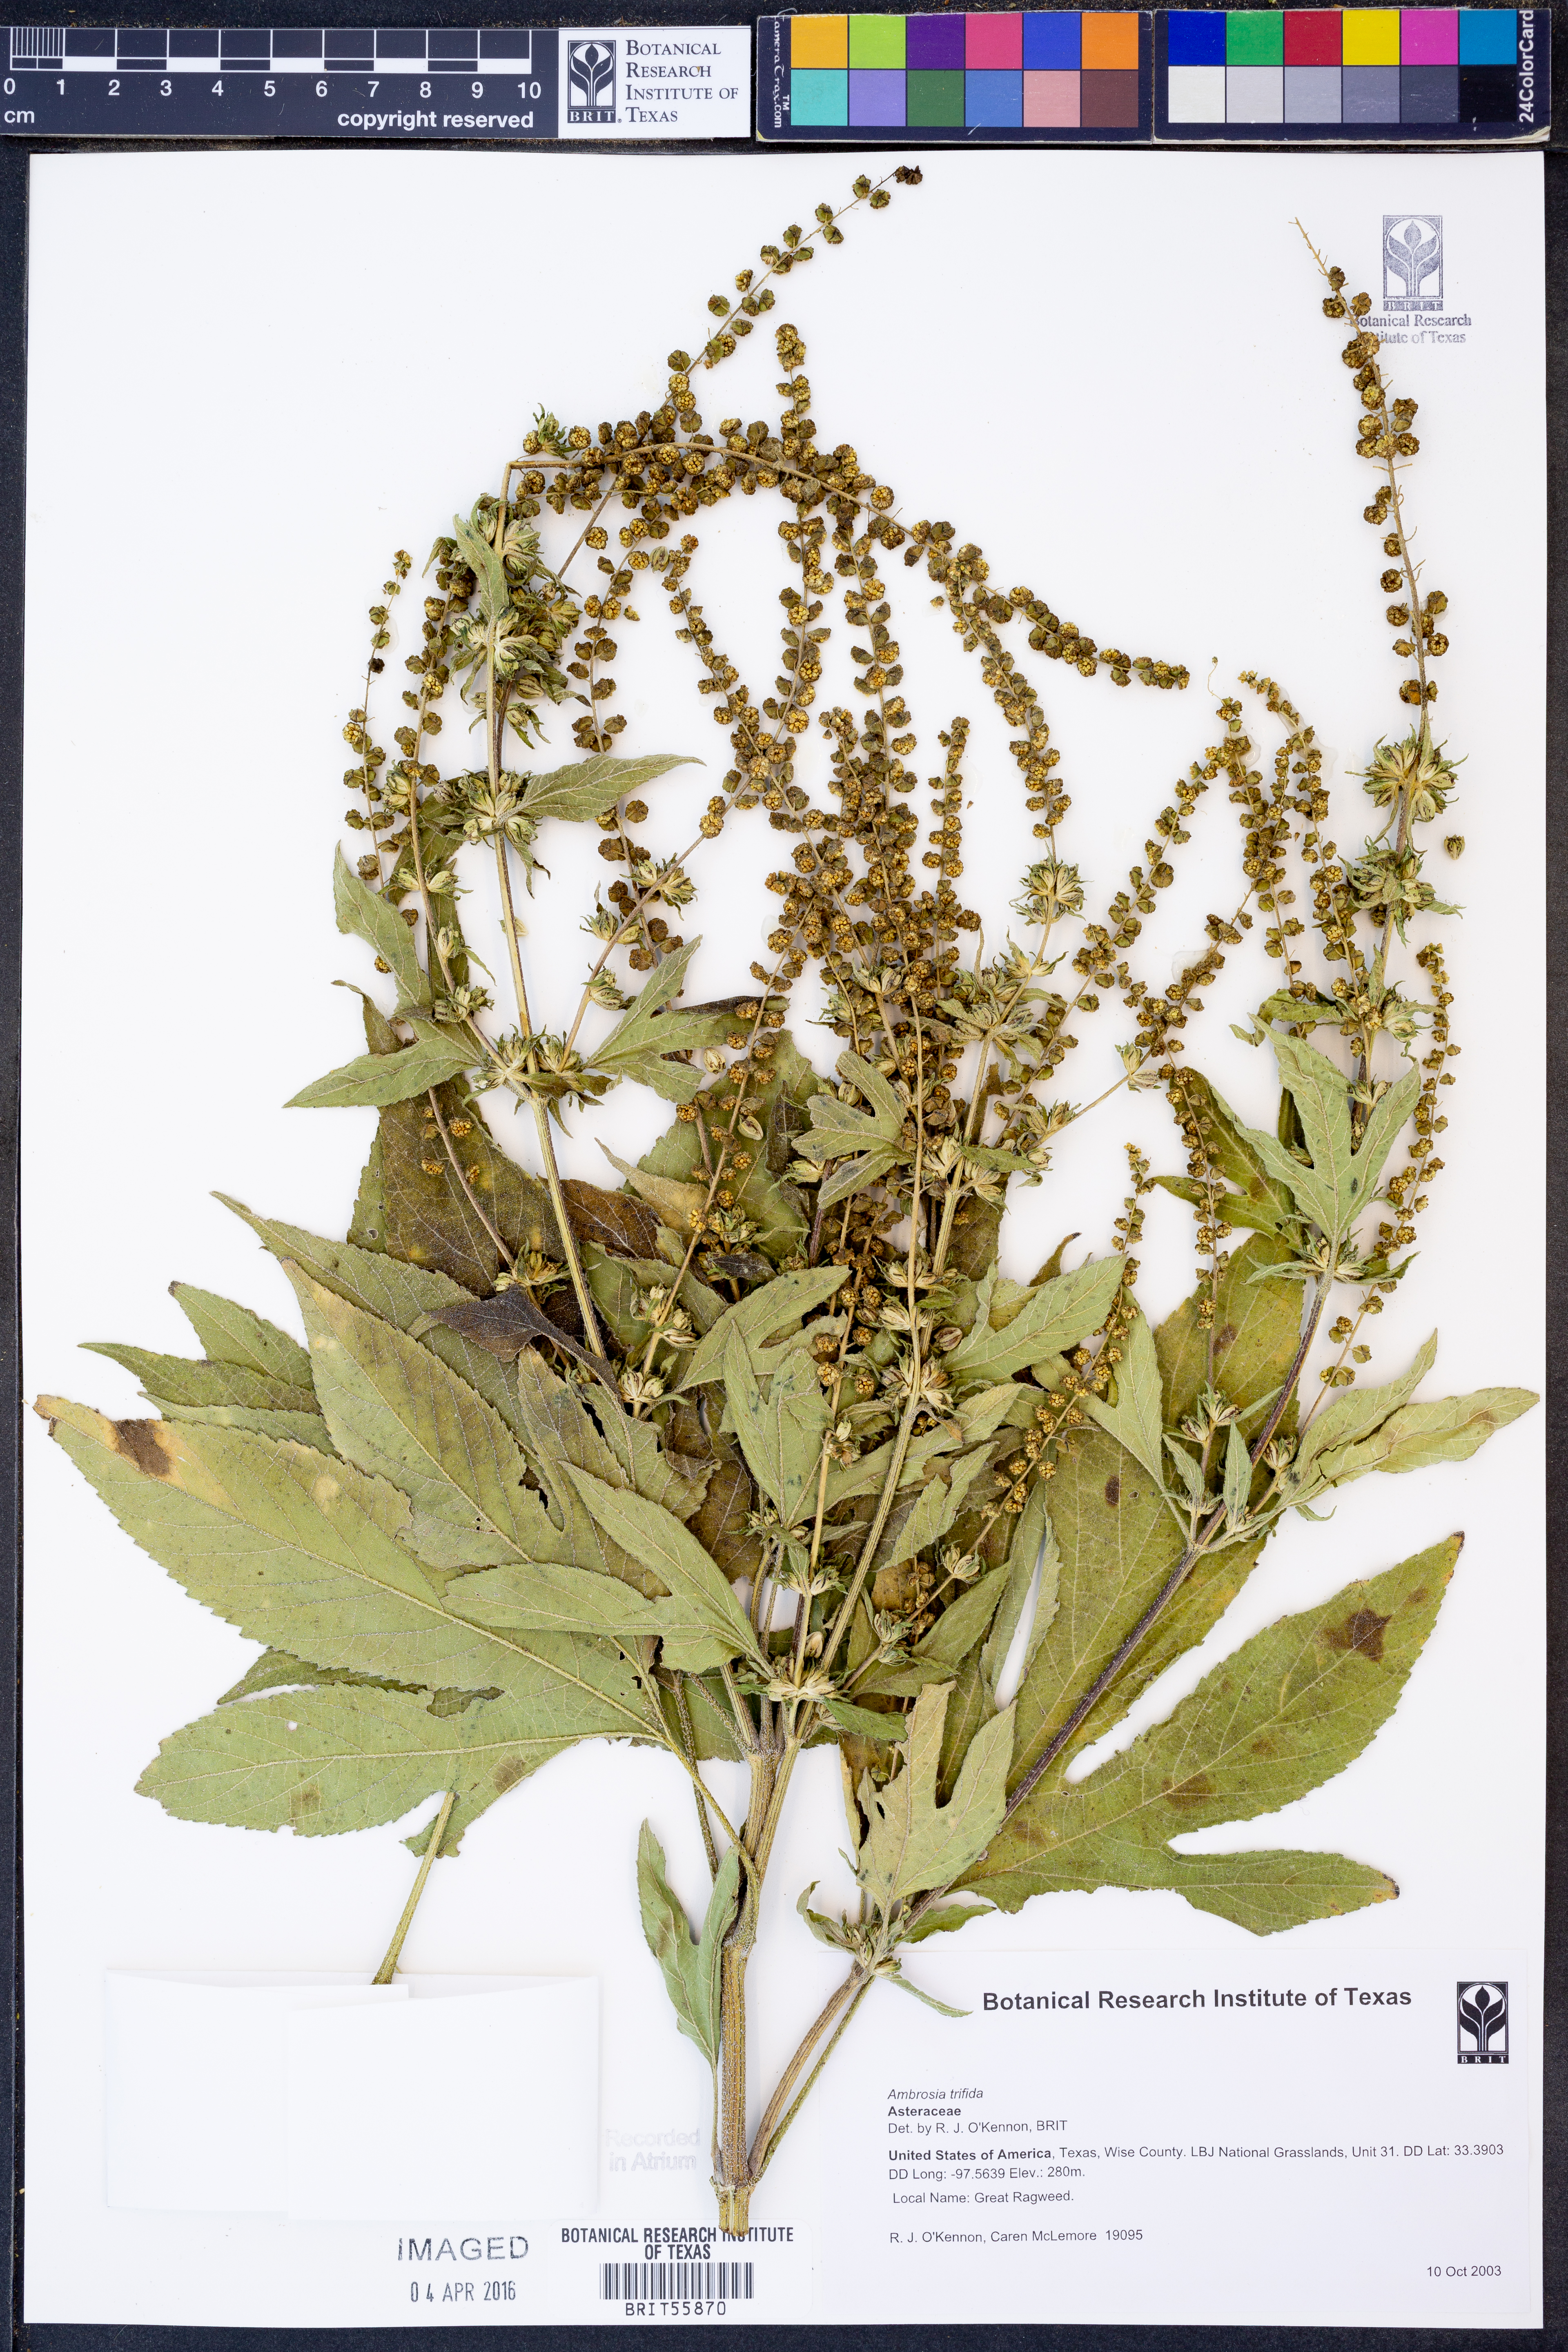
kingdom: Plantae
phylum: Tracheophyta
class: Magnoliopsida
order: Asterales
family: Asteraceae
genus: Ambrosia
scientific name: Ambrosia trifida
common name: Giant ragweed
